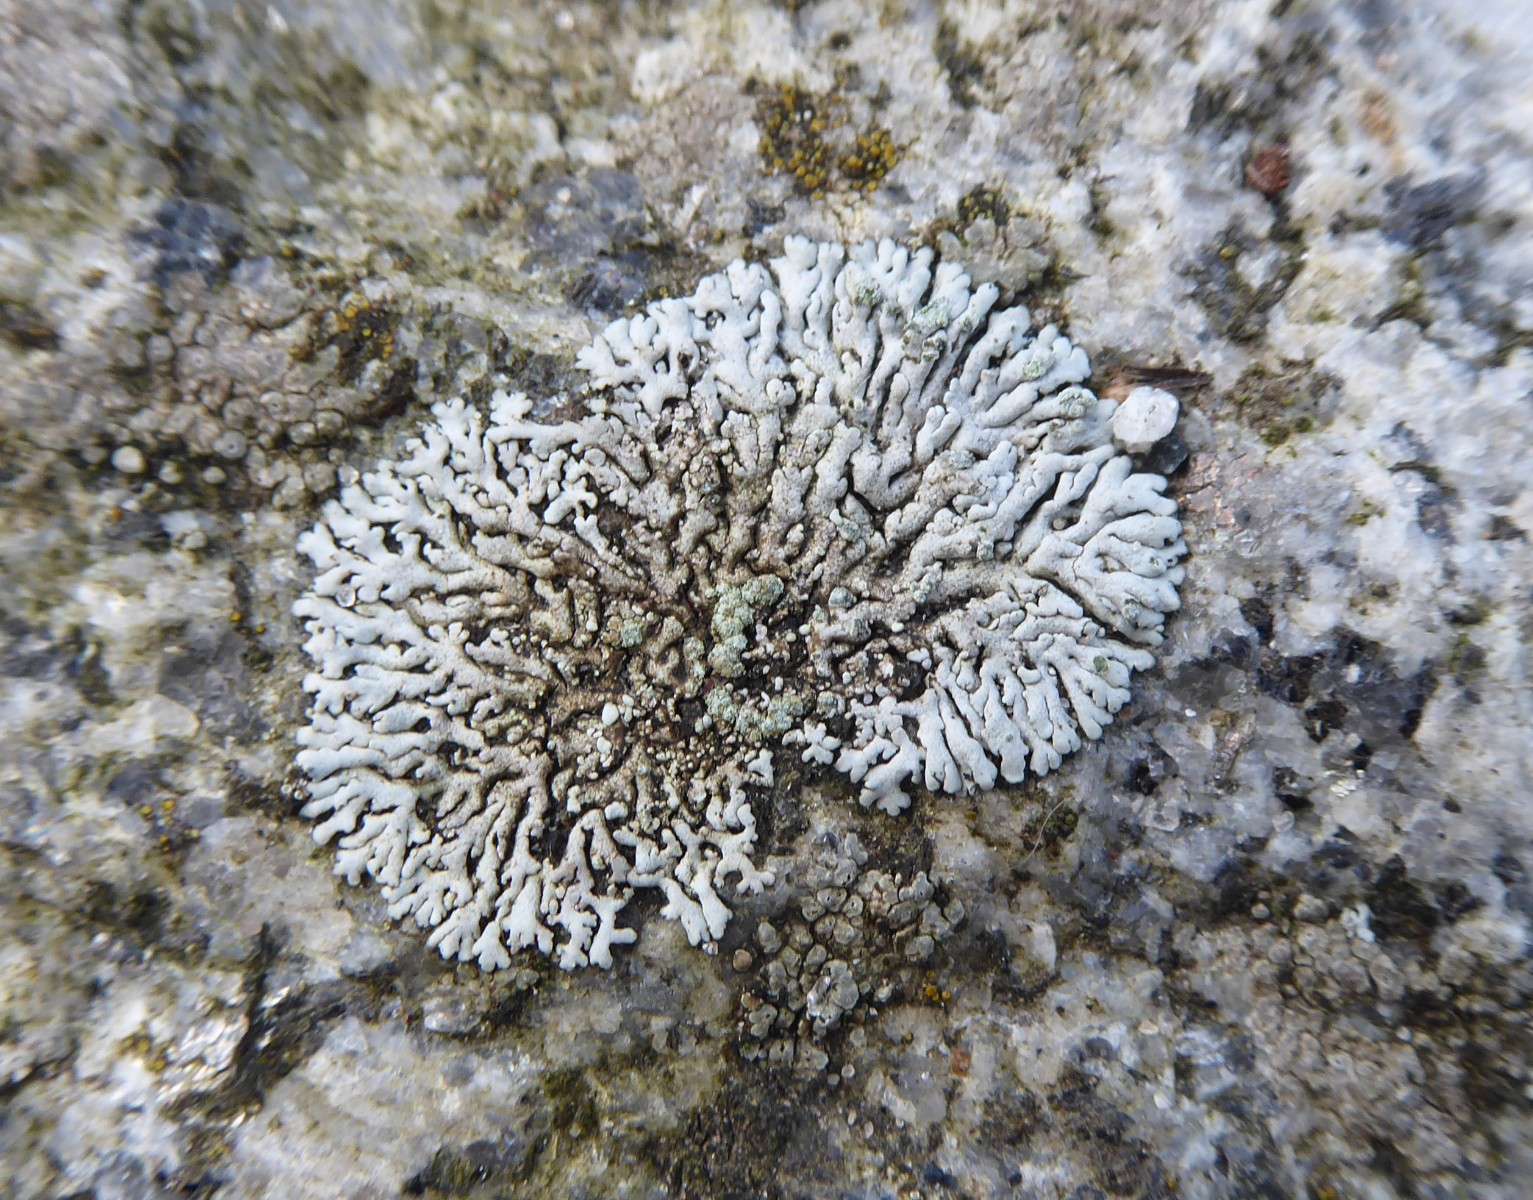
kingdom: Fungi
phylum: Ascomycota
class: Lecanoromycetes
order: Caliciales
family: Physciaceae
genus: Physcia
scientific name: Physcia caesia
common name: blågrå rosetlav
